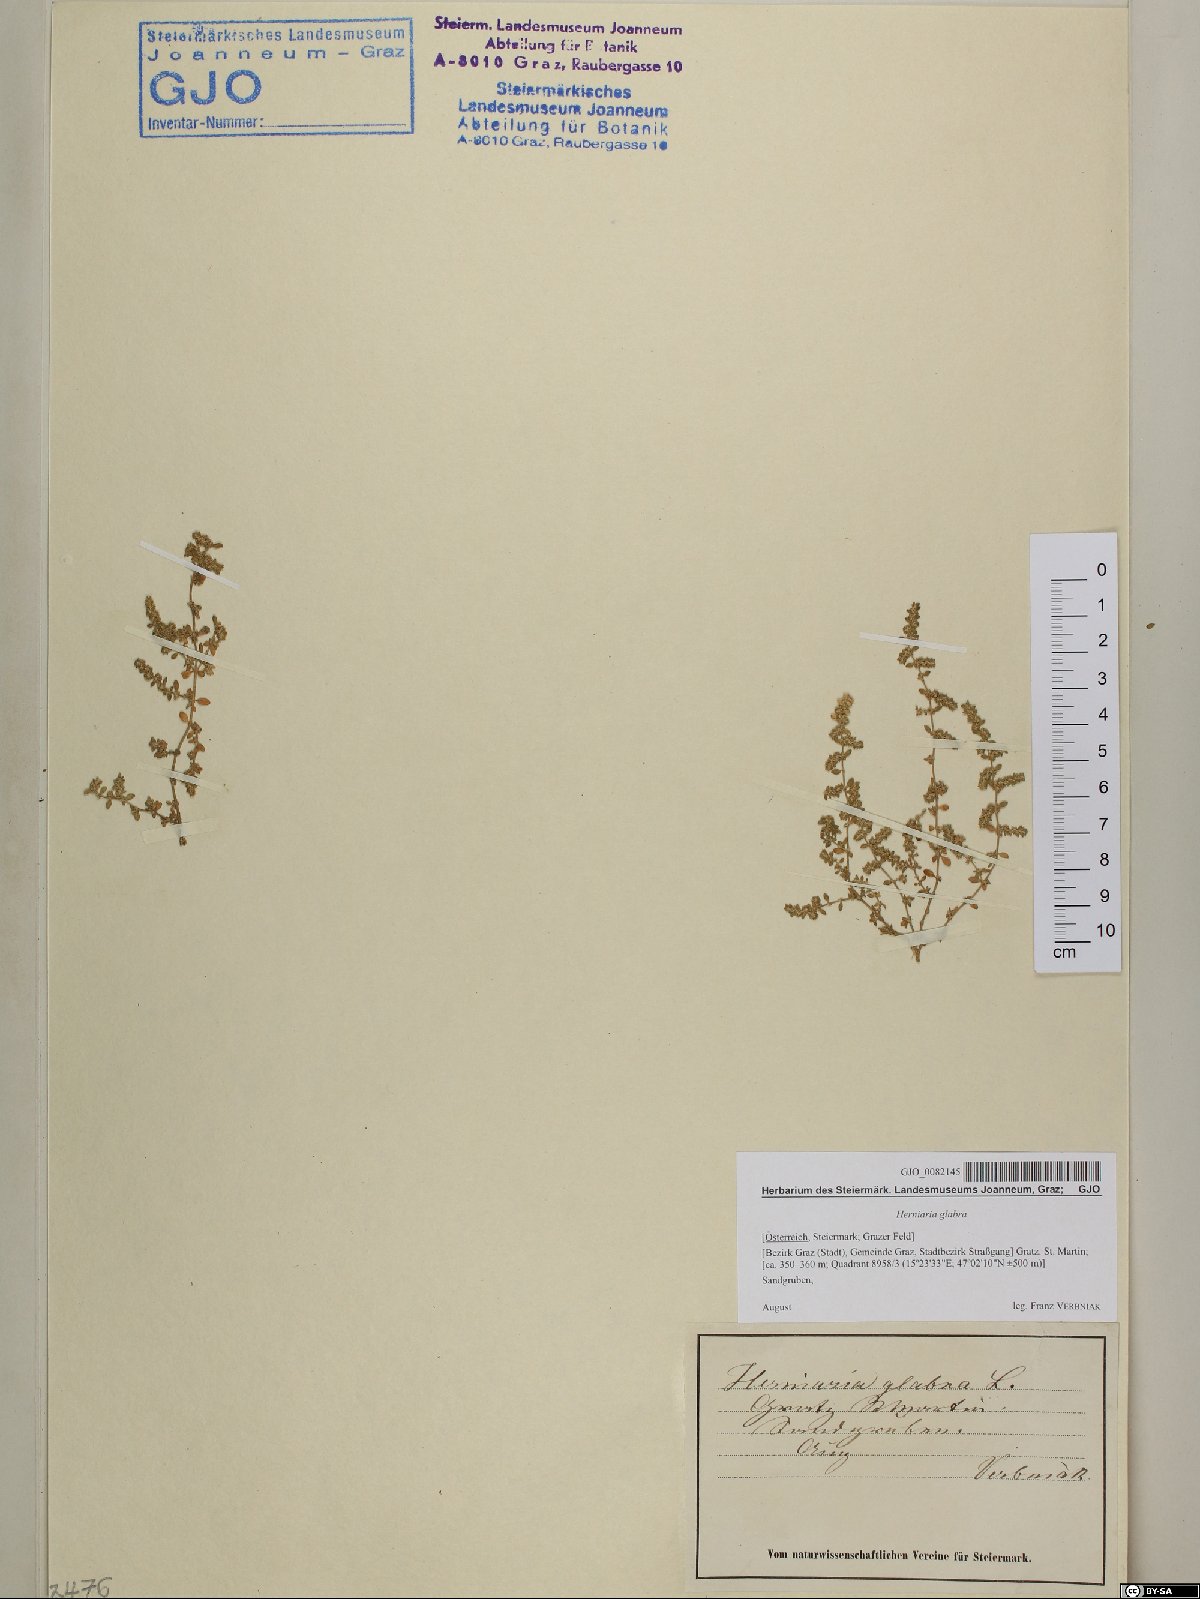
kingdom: Plantae
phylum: Tracheophyta
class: Magnoliopsida
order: Caryophyllales
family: Caryophyllaceae
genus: Herniaria
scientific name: Herniaria glabra
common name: Smooth rupturewort
